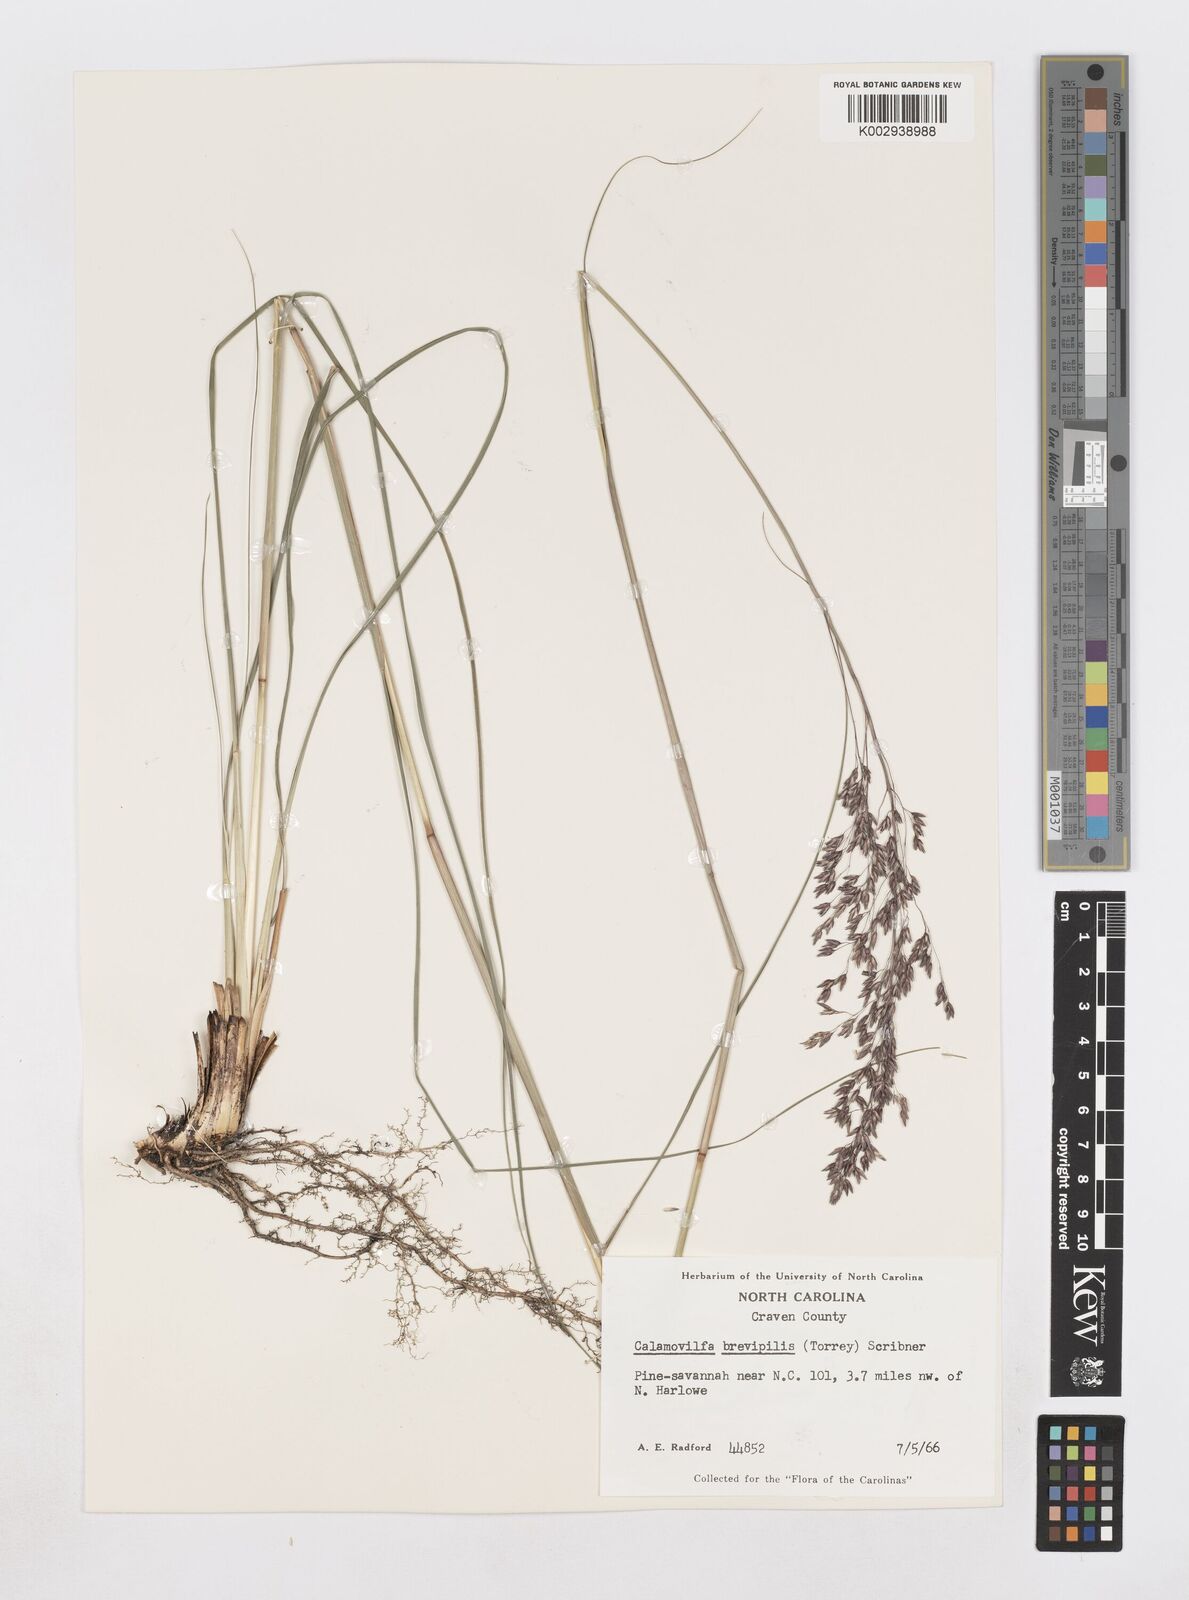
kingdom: Plantae
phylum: Tracheophyta
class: Liliopsida
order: Poales
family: Poaceae
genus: Sporobolus
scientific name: Sporobolus brevipilis
